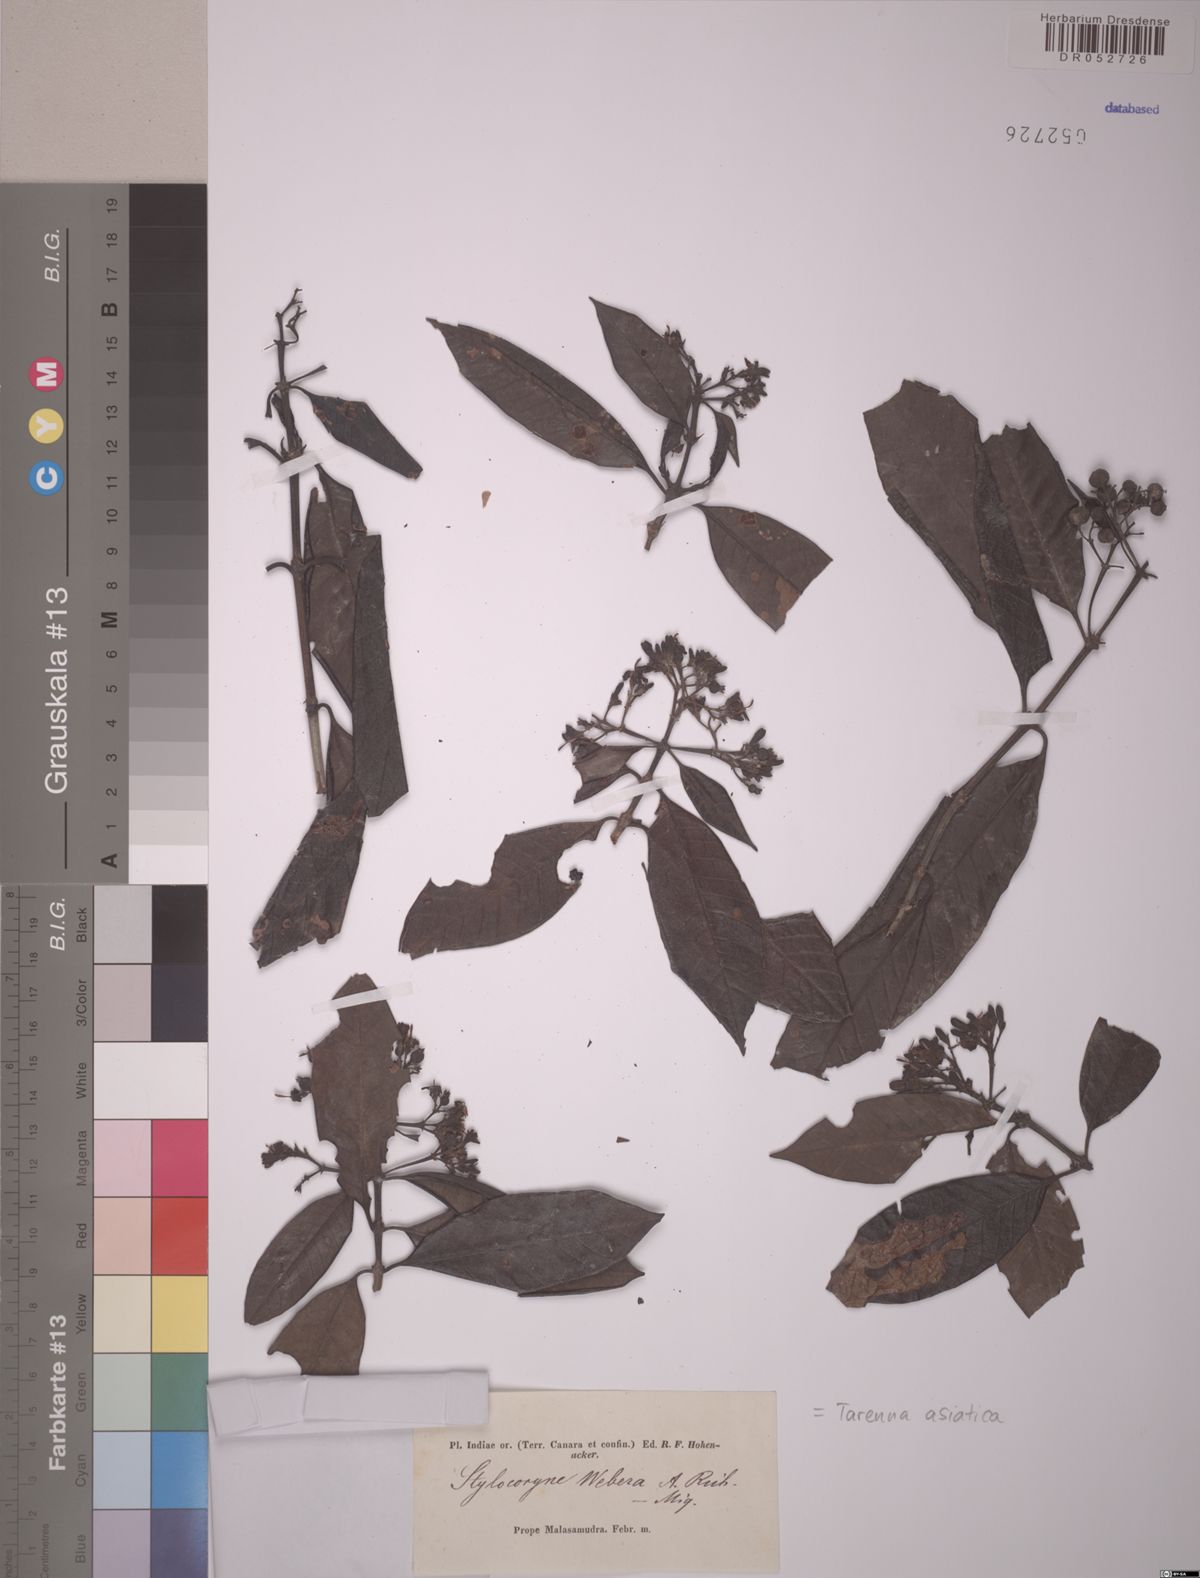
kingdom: Plantae
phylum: Tracheophyta
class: Magnoliopsida
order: Gentianales
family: Rubiaceae
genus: Tarenna
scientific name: Tarenna asiatica
